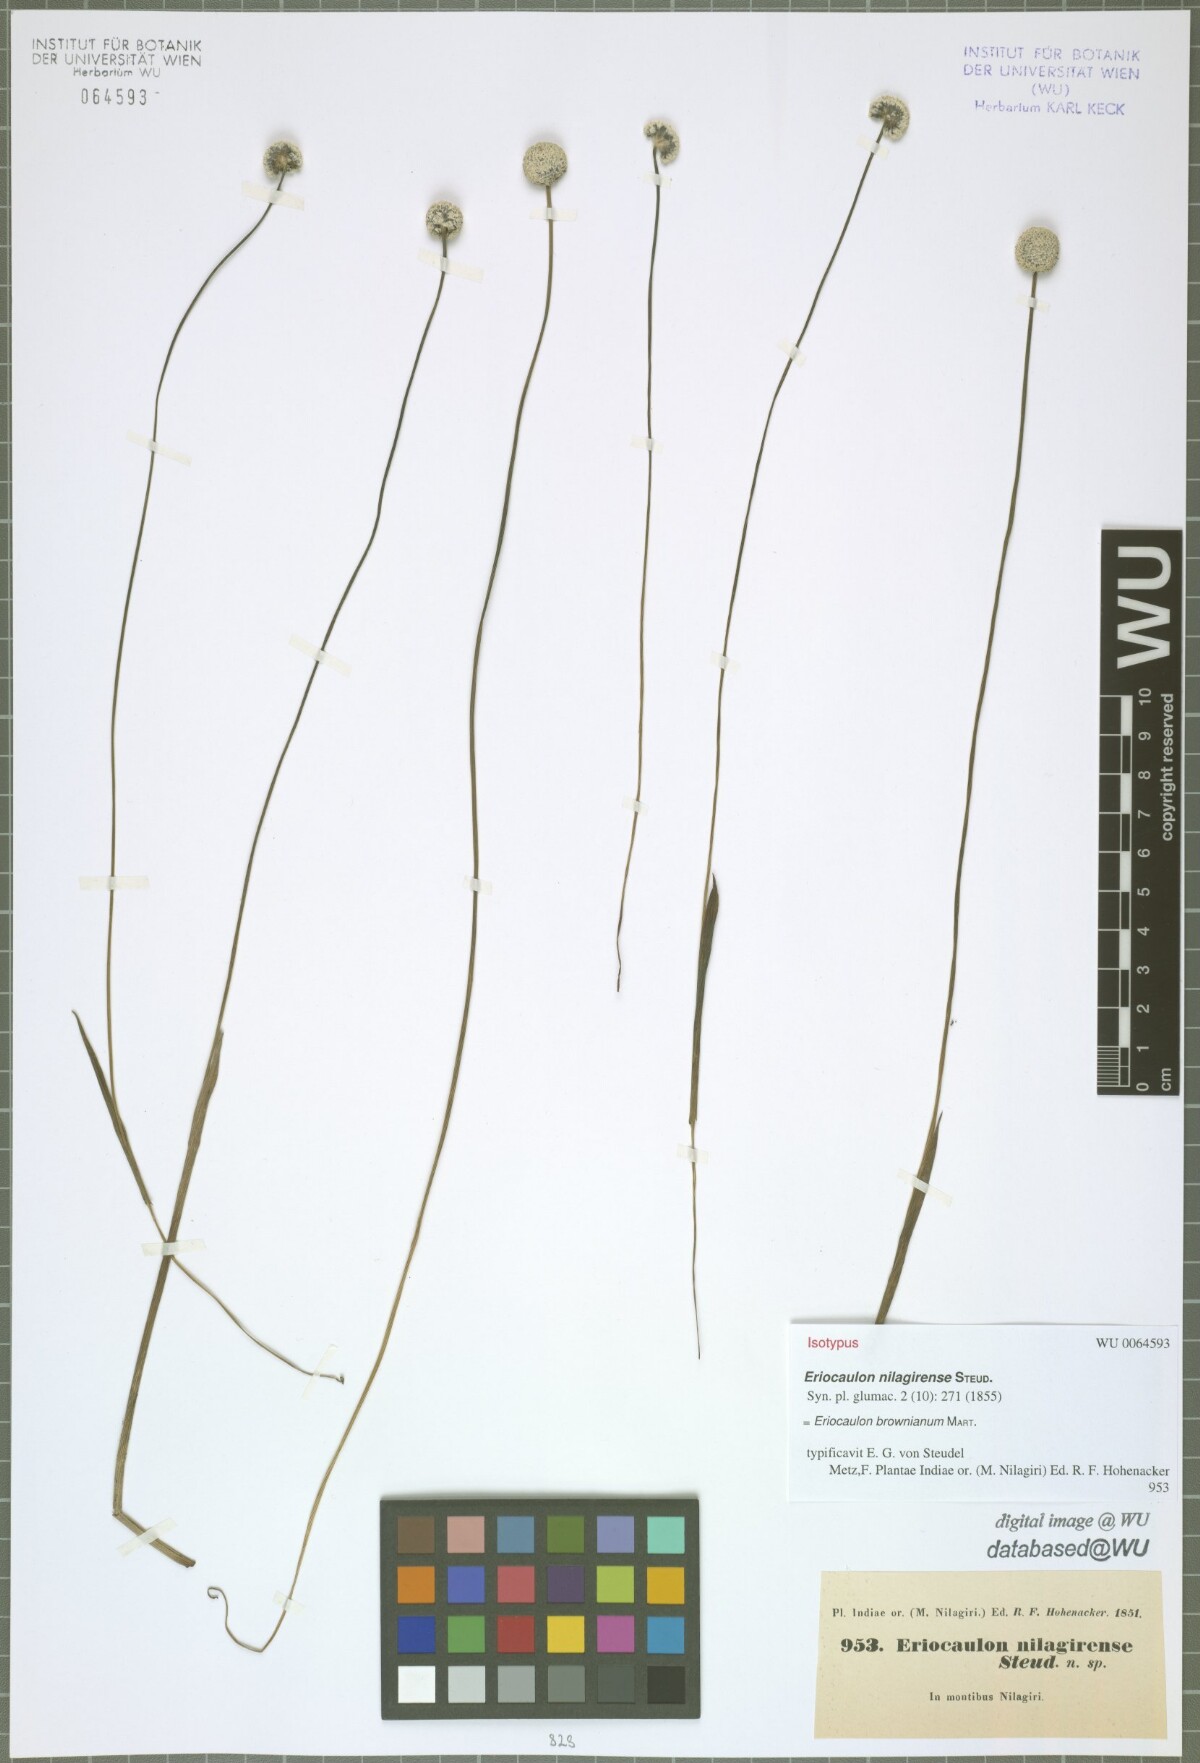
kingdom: Plantae
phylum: Tracheophyta
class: Liliopsida
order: Poales
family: Eriocaulaceae
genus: Eriocaulon
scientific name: Eriocaulon brownianum
